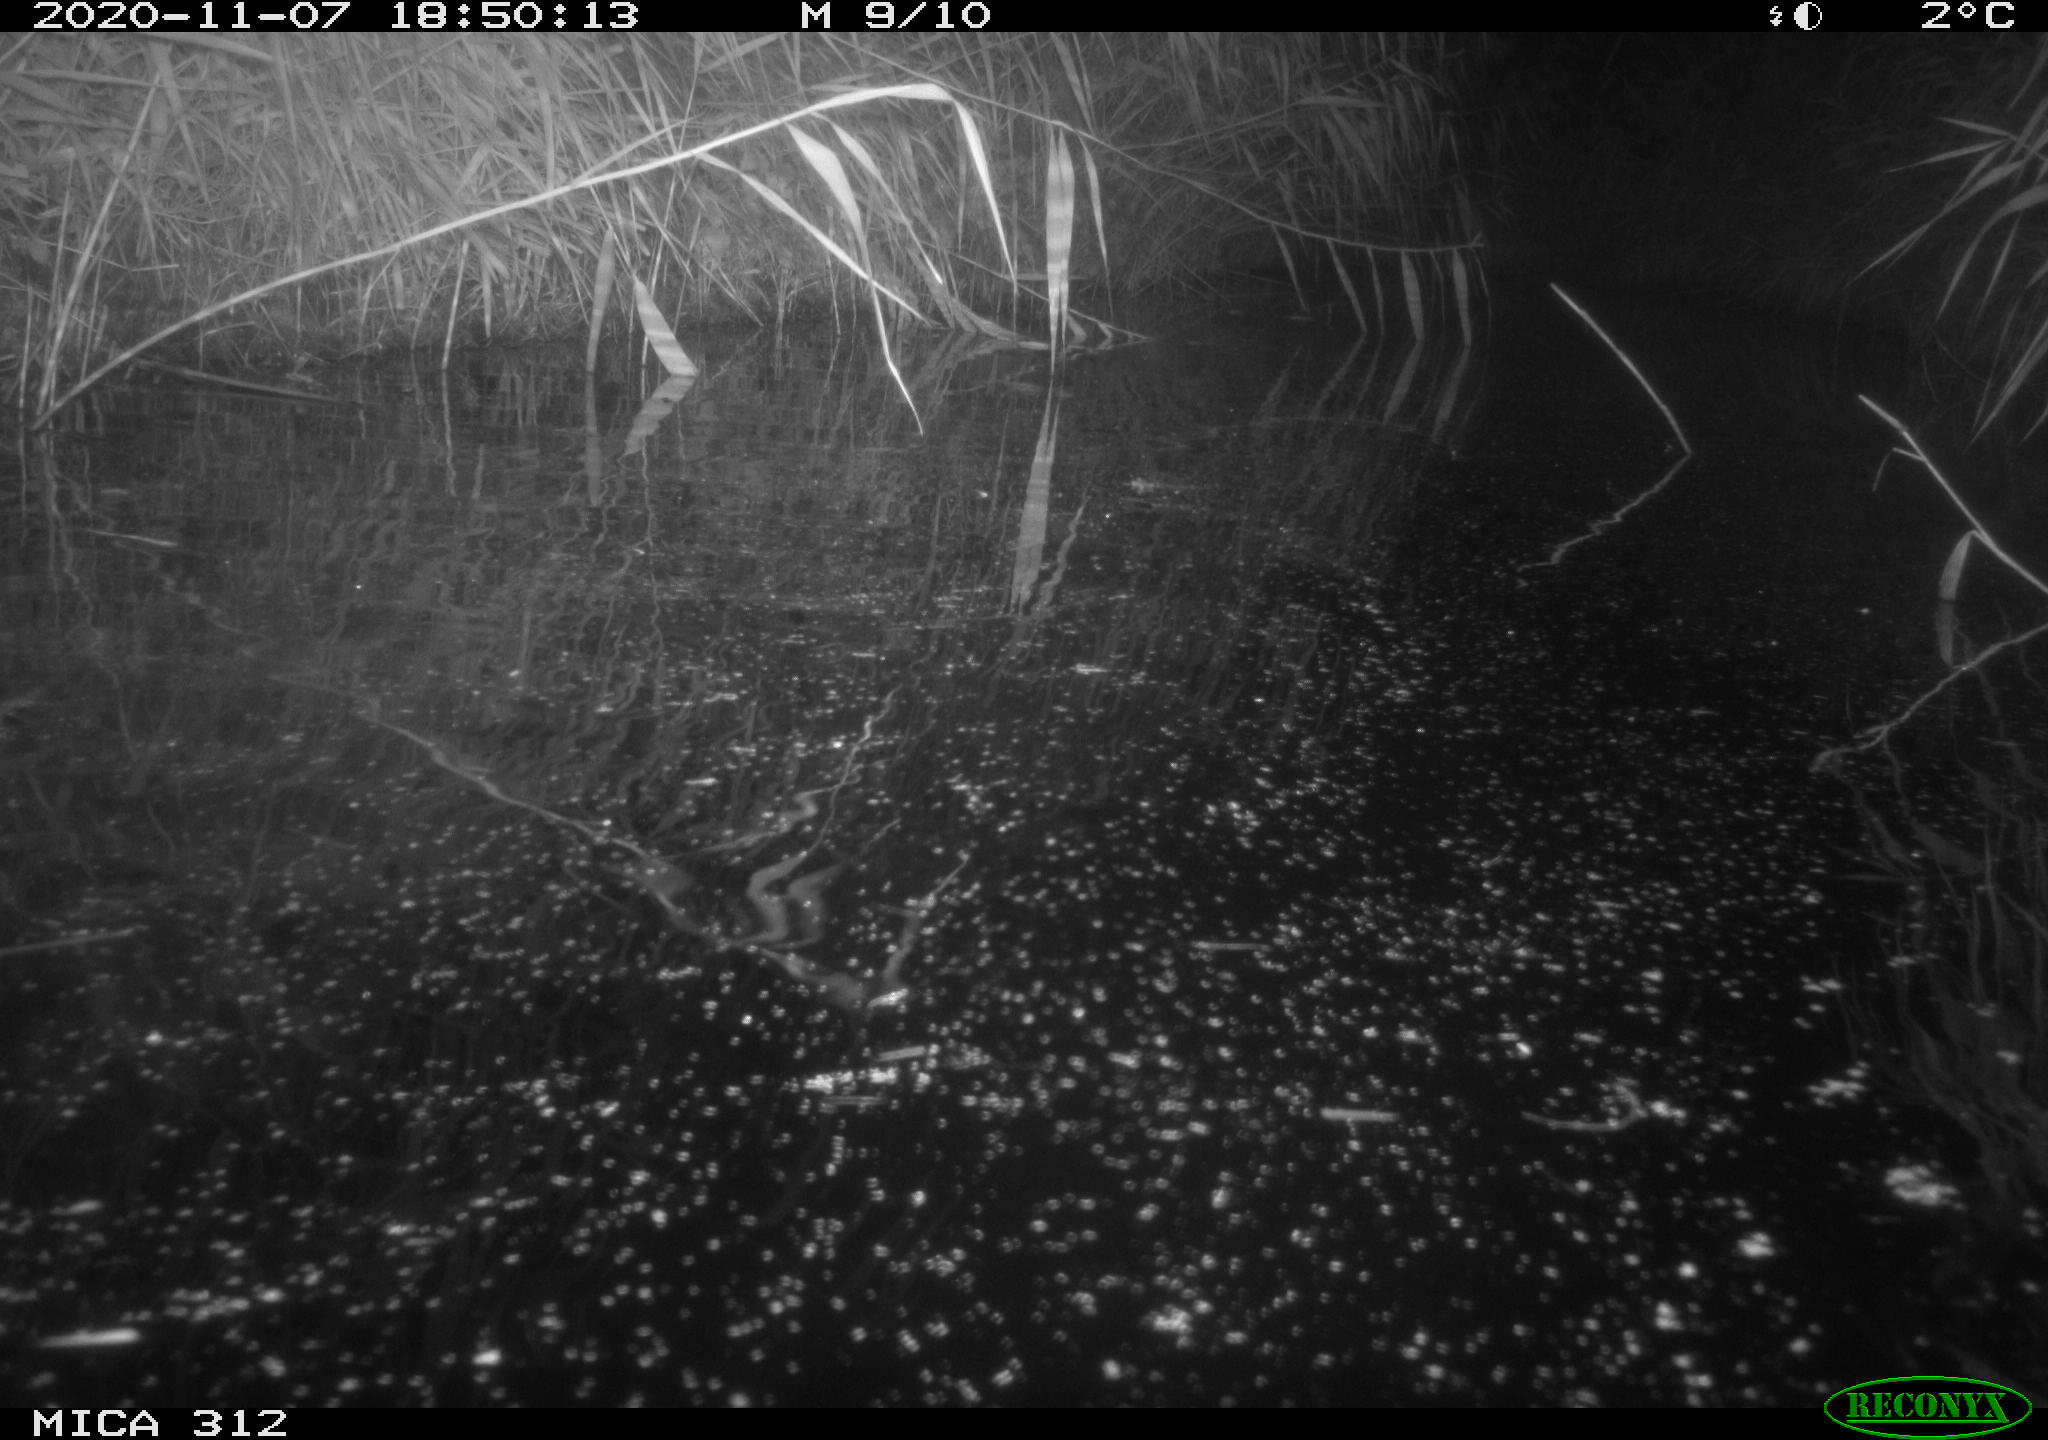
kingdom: Animalia
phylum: Chordata
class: Mammalia
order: Rodentia
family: Muridae
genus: Rattus
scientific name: Rattus norvegicus
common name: Brown rat
